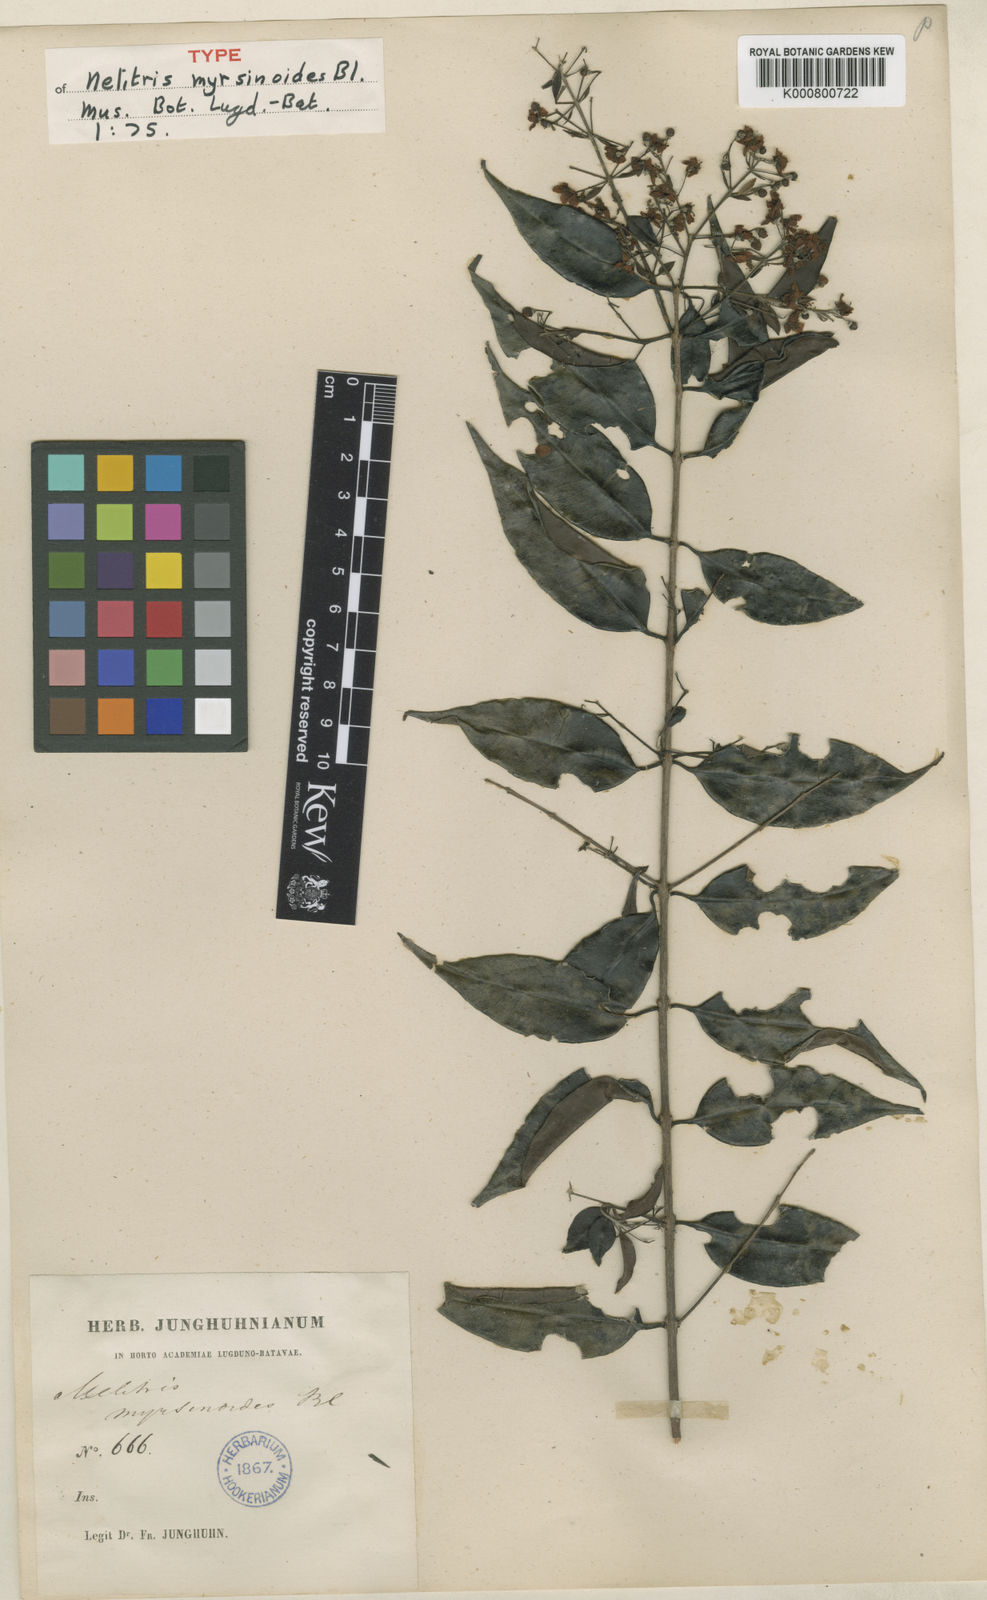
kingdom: Plantae
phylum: Tracheophyta
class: Magnoliopsida
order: Myrtales
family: Myrtaceae
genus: Decaspermum
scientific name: Decaspermum parviflorum
